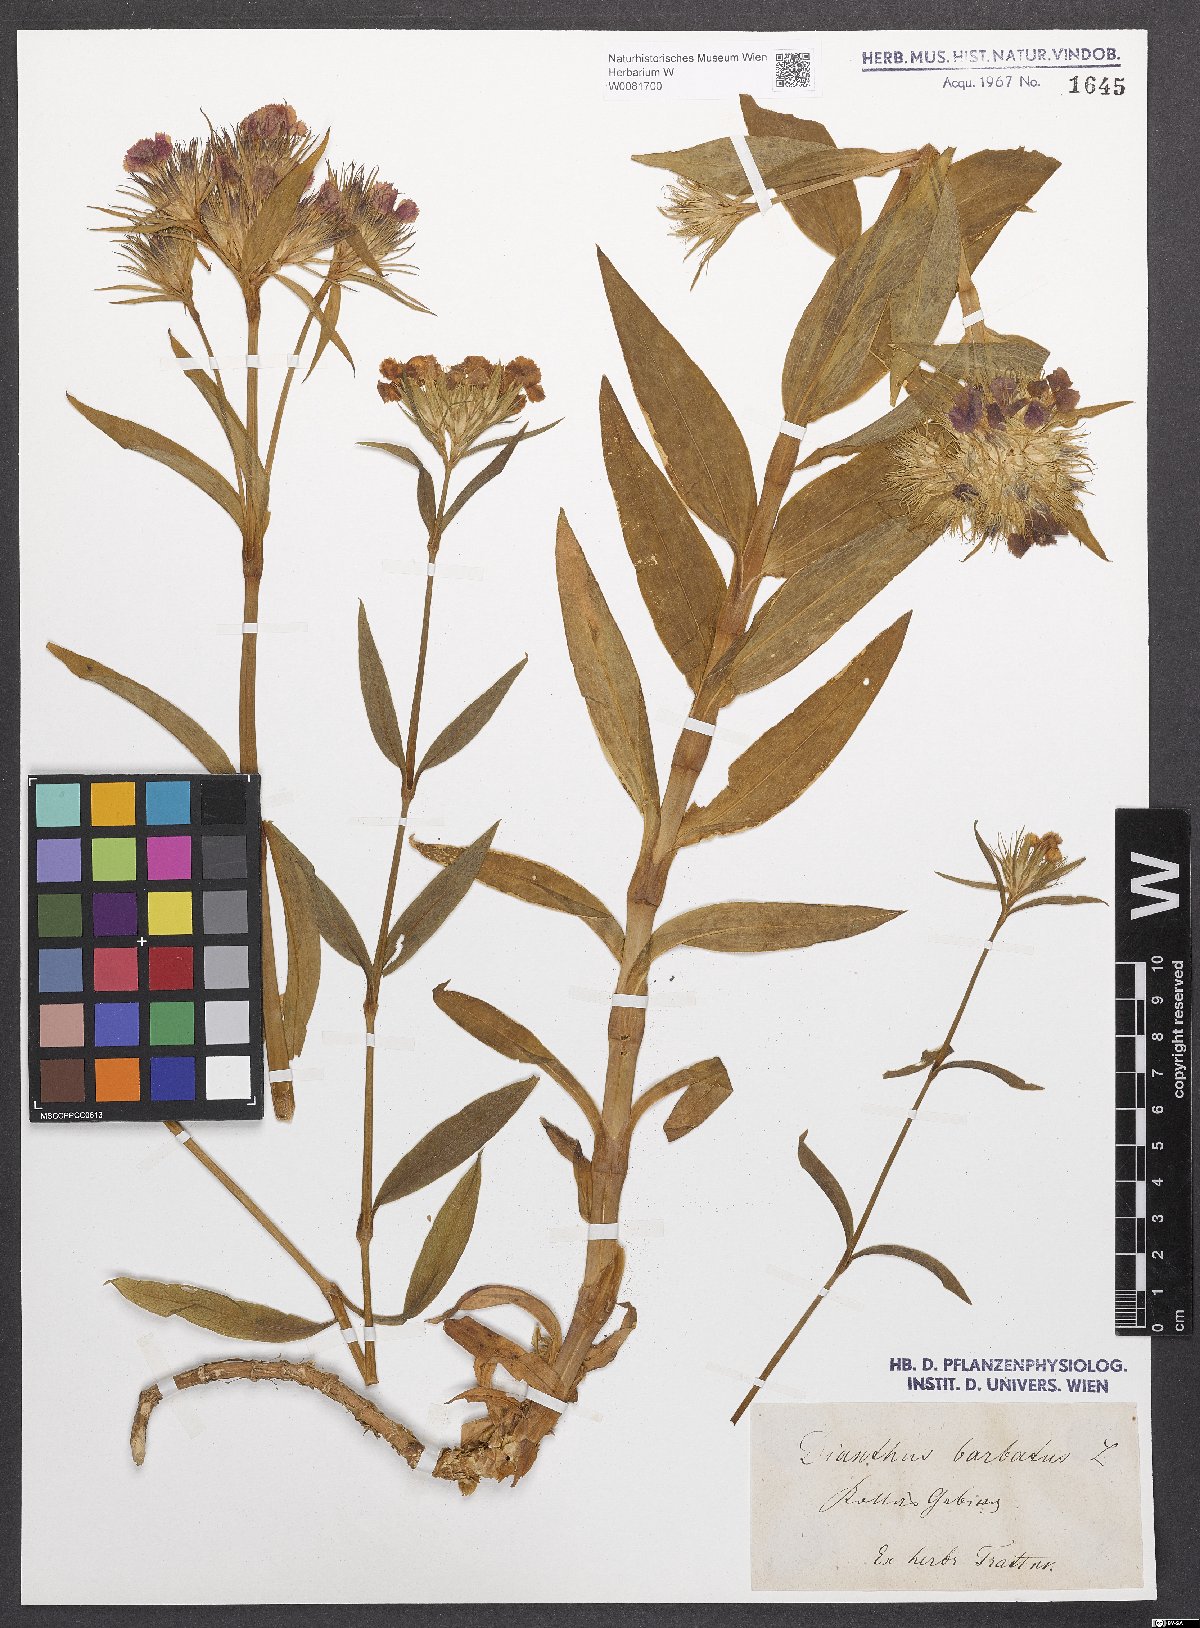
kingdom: Plantae
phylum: Tracheophyta
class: Magnoliopsida
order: Caryophyllales
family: Caryophyllaceae
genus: Dianthus
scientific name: Dianthus barbatus
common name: Sweet-william
